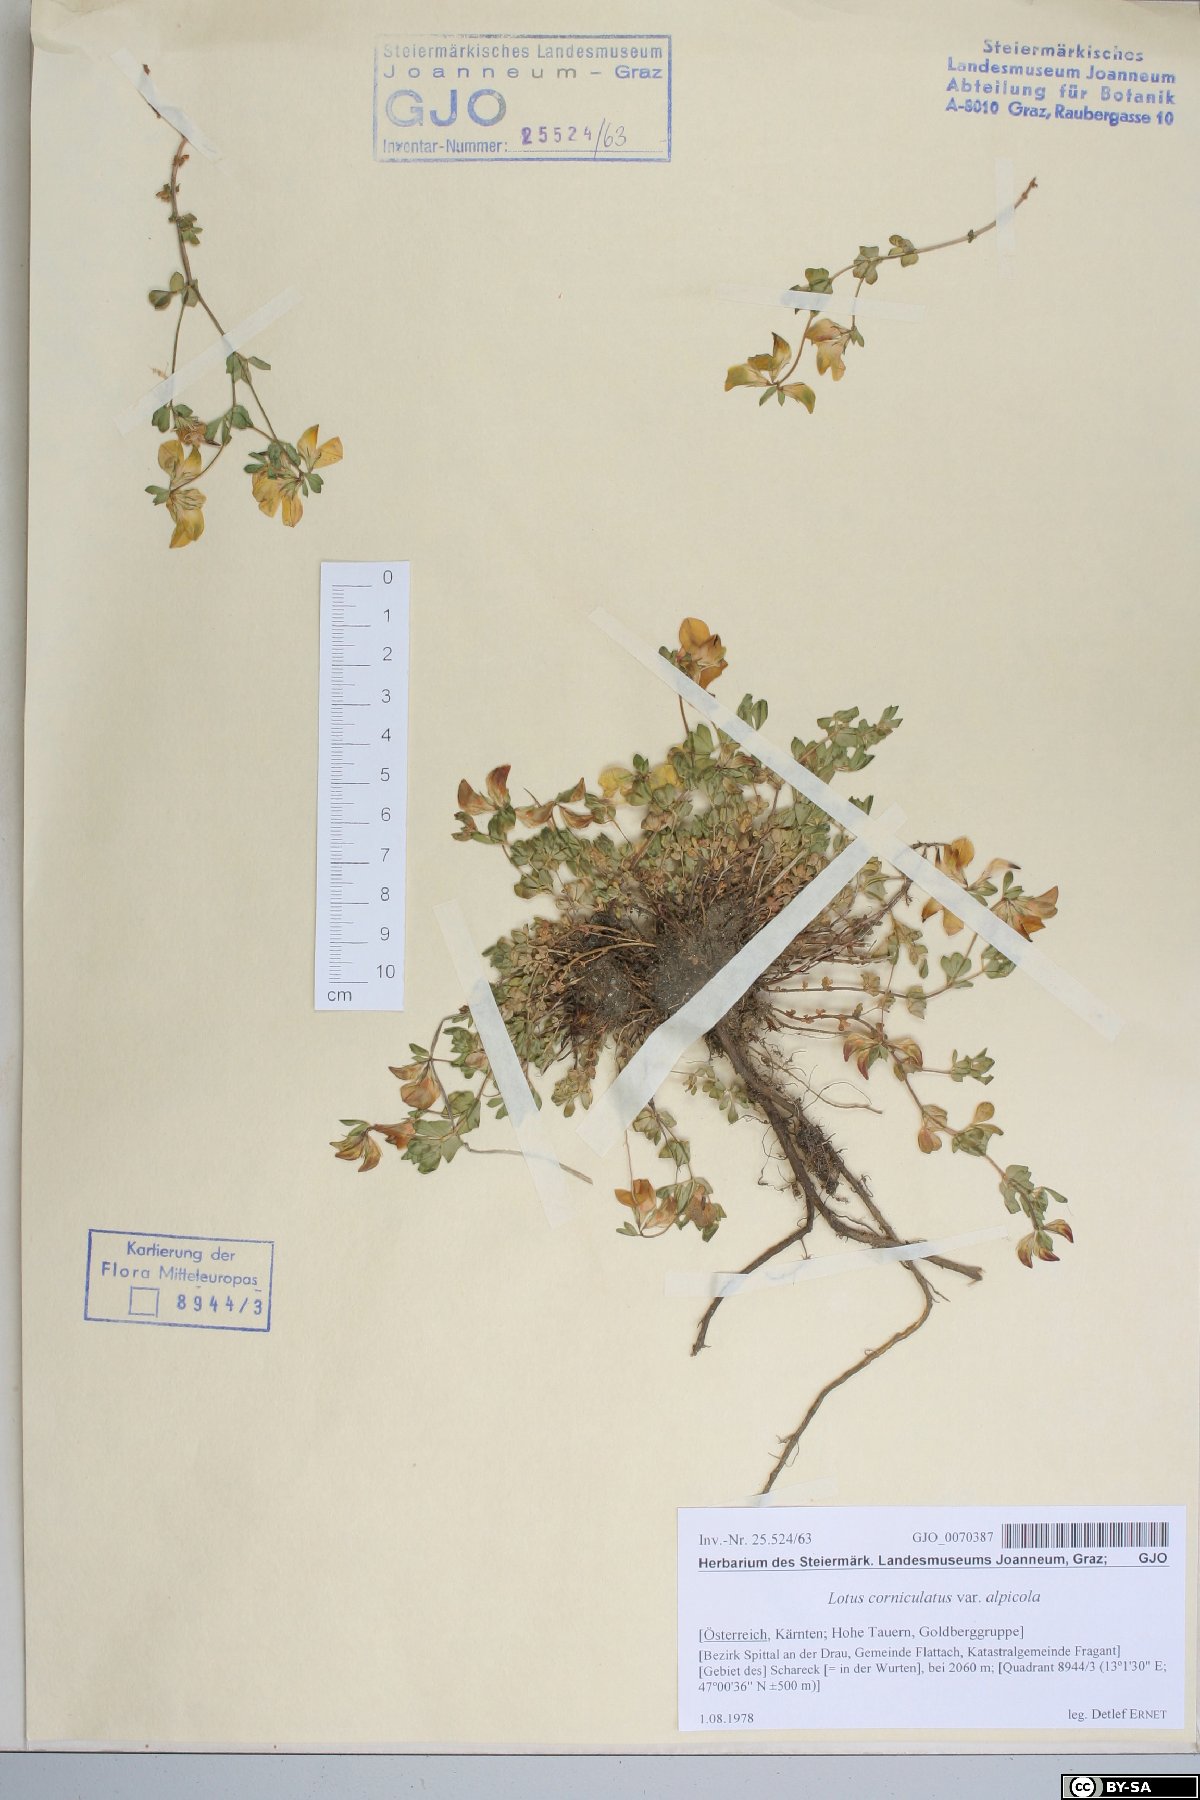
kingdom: Plantae
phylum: Tracheophyta
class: Magnoliopsida
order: Fabales
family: Fabaceae
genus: Lotus
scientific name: Lotus corniculatus
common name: Common bird's-foot-trefoil
